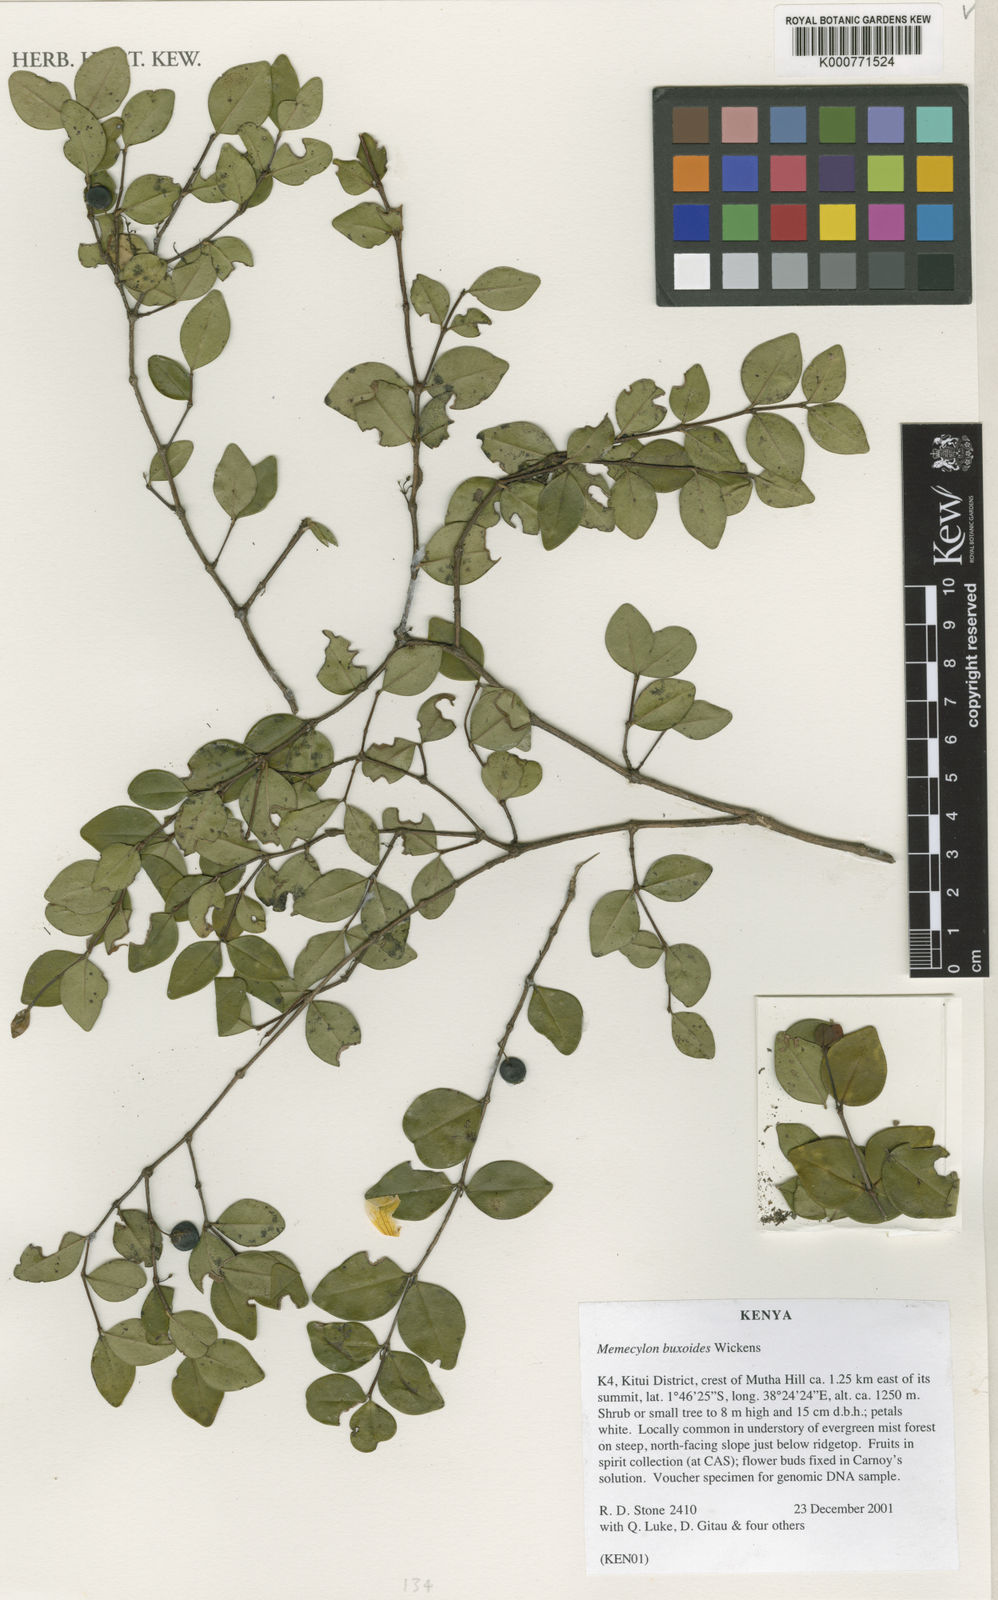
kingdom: Plantae
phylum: Tracheophyta
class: Magnoliopsida
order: Myrtales
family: Melastomataceae
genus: Memecylon
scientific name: Memecylon buxoides
